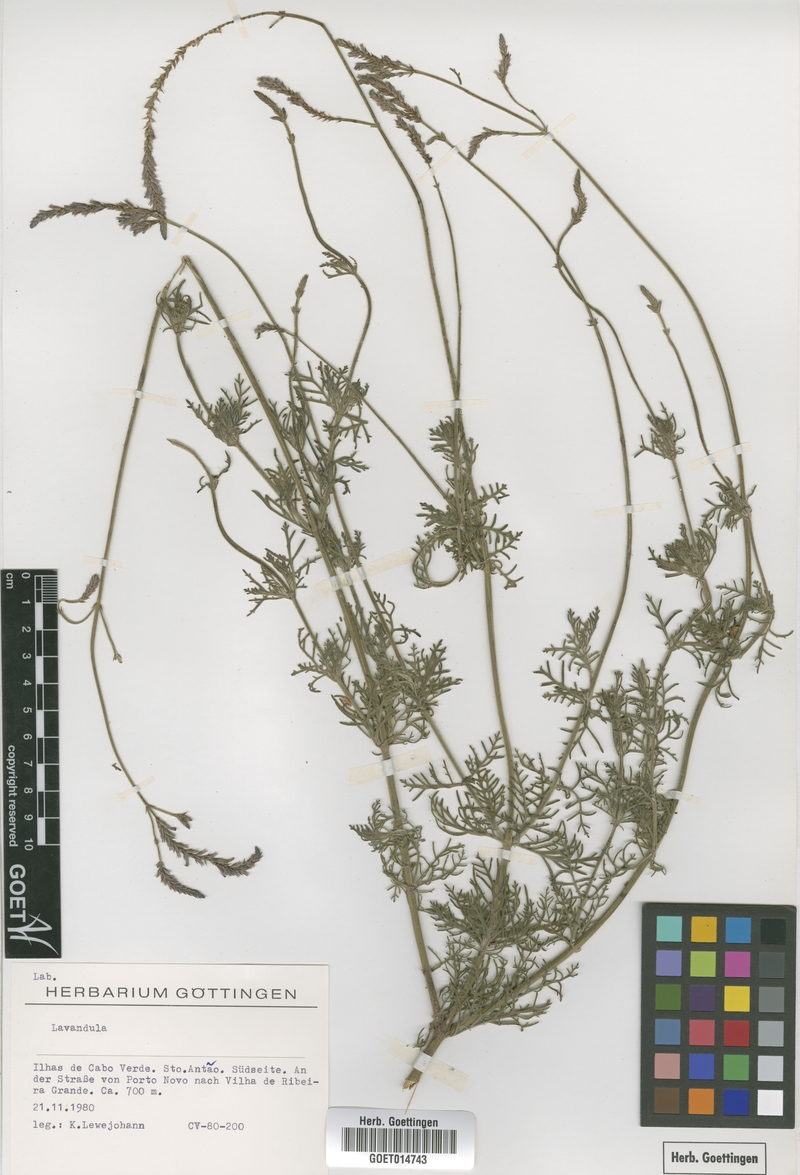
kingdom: Plantae
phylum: Tracheophyta
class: Magnoliopsida
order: Lamiales
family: Lamiaceae
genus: Lavandula
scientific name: Lavandula
